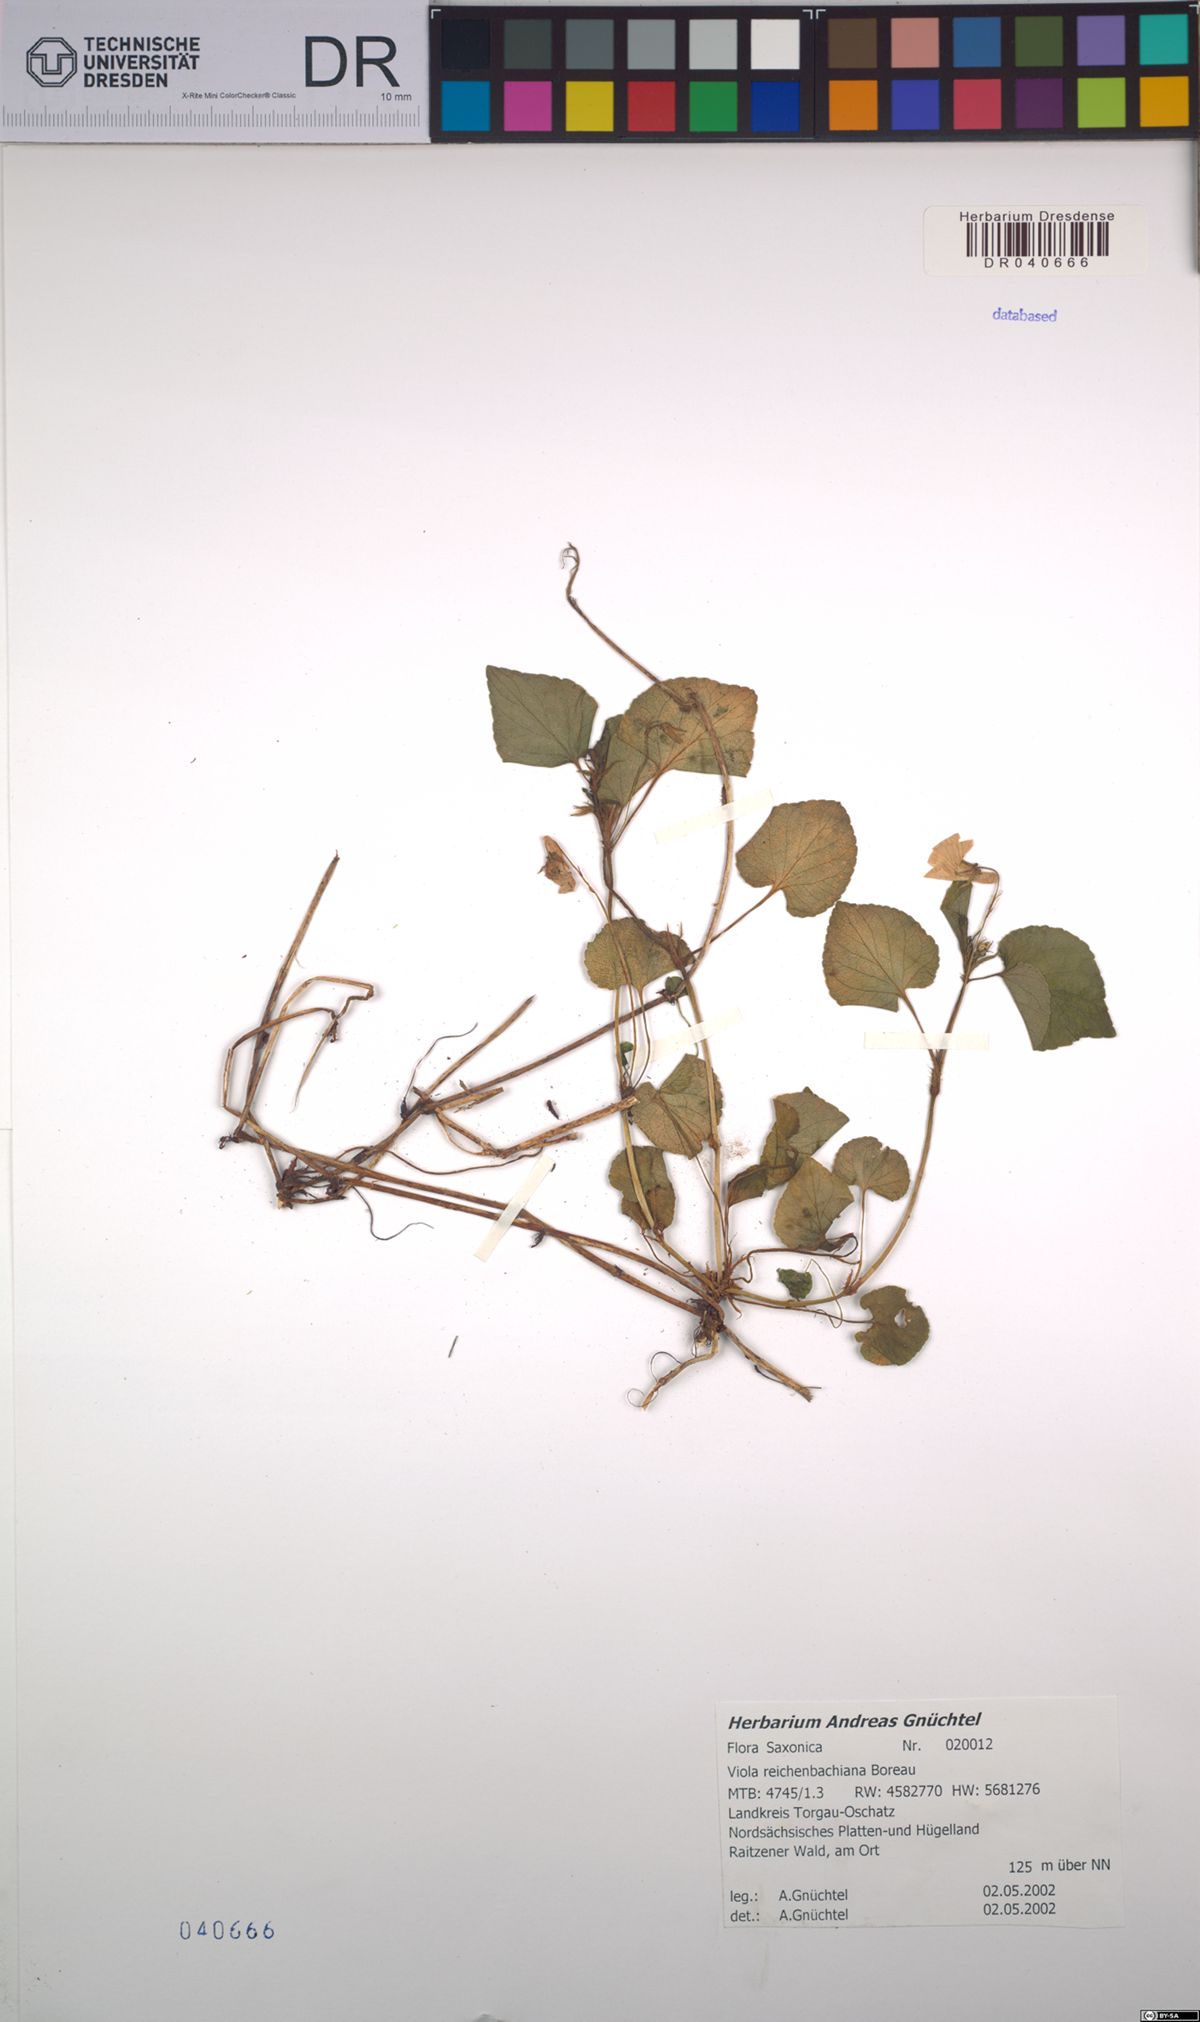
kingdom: Plantae
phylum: Tracheophyta
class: Magnoliopsida
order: Malpighiales
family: Violaceae
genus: Viola
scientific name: Viola reichenbachiana
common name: Early dog-violet
